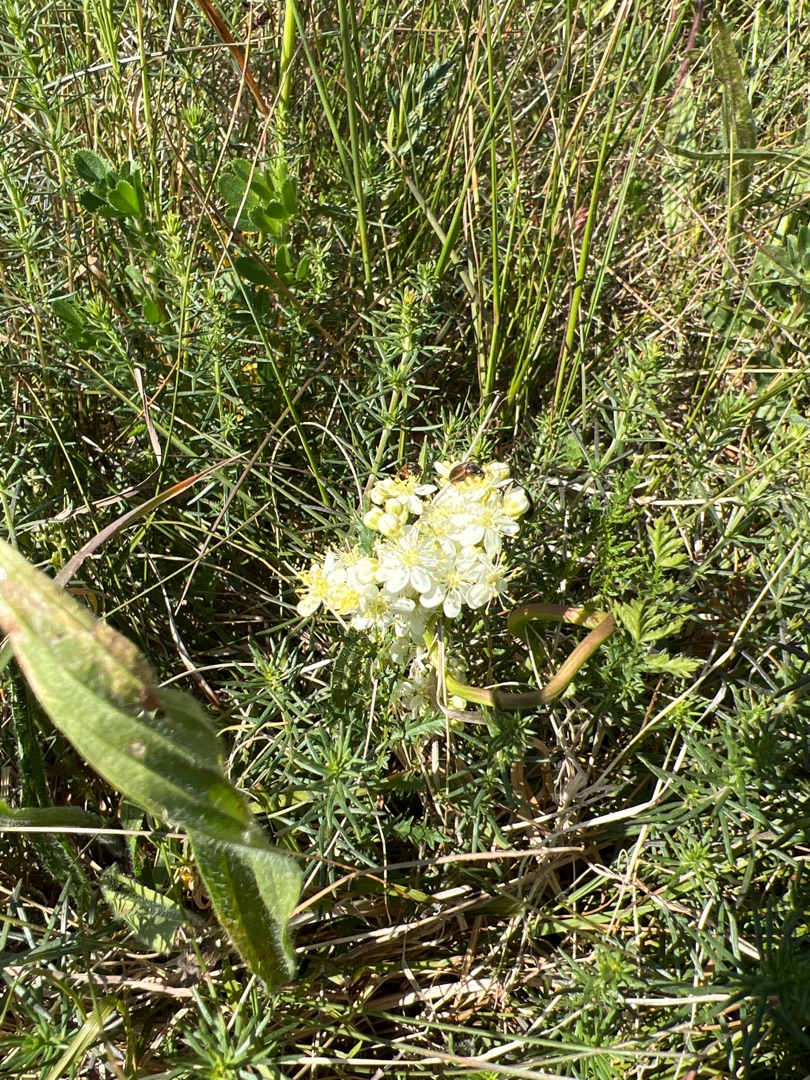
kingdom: Plantae
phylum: Tracheophyta
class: Magnoliopsida
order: Rosales
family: Rosaceae
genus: Filipendula
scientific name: Filipendula vulgaris
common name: Knoldet mjødurt
